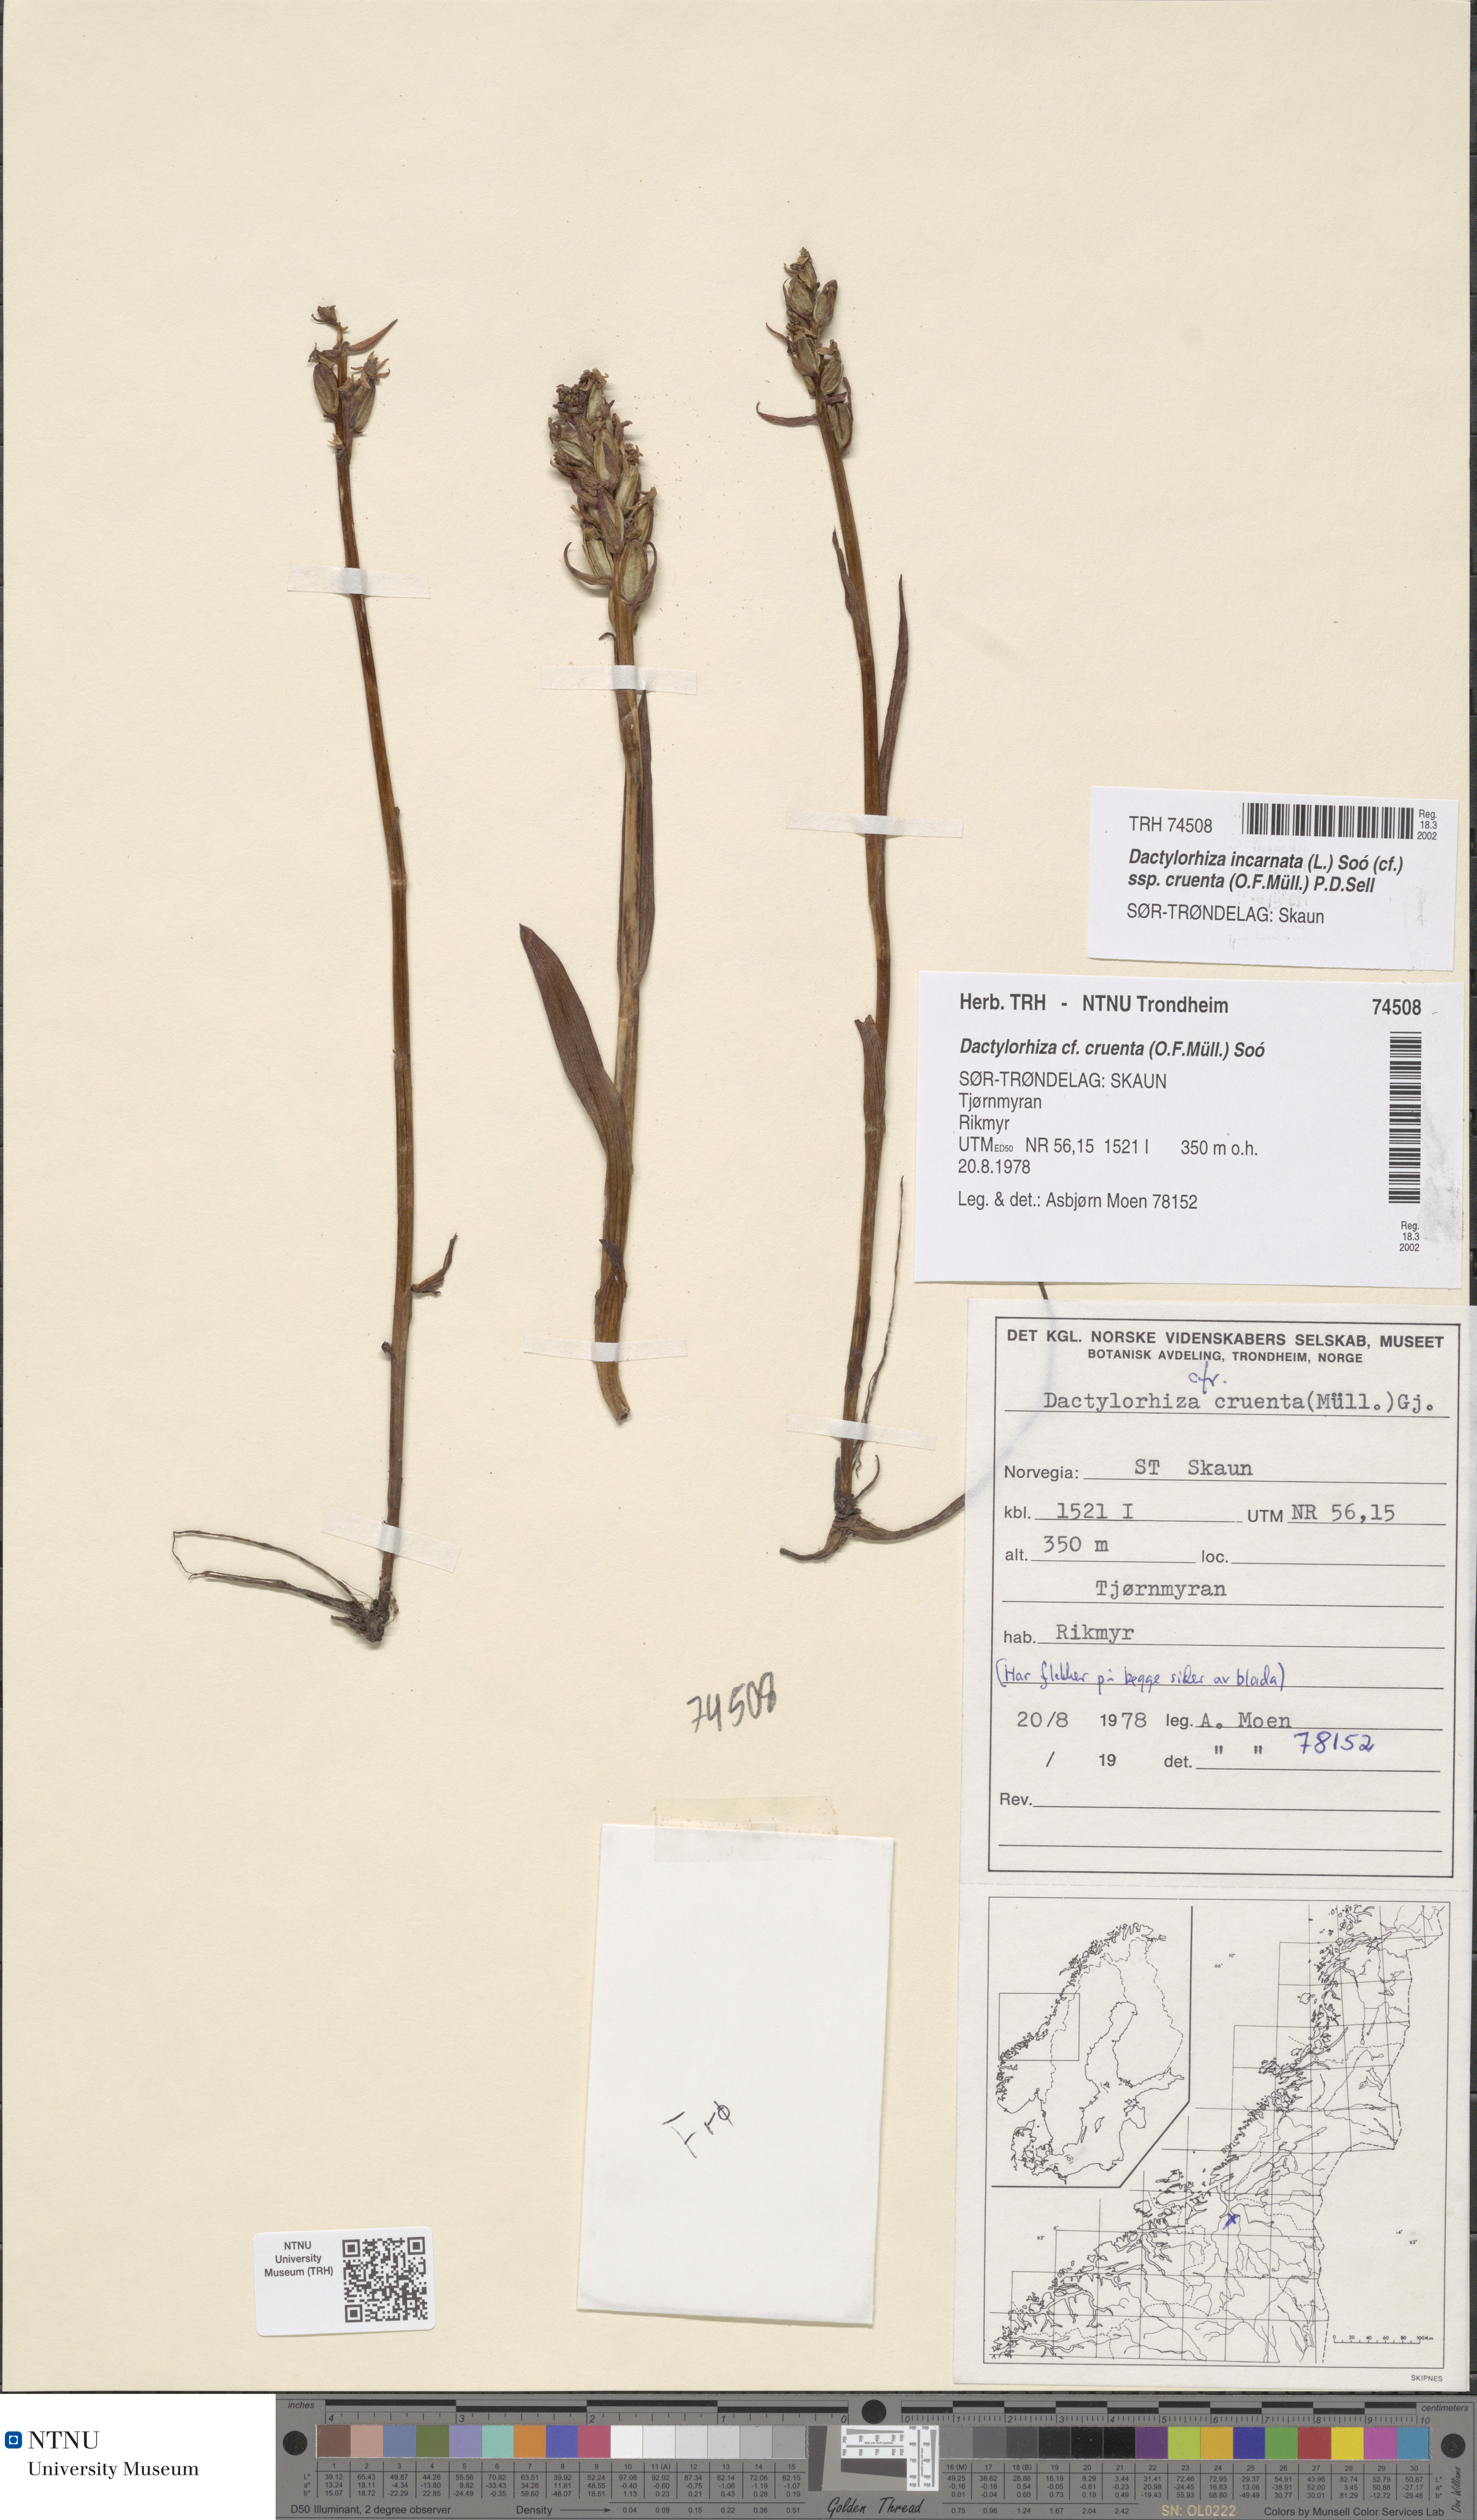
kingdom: Plantae
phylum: Tracheophyta
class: Liliopsida
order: Asparagales
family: Orchidaceae
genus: Dactylorhiza
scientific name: Dactylorhiza incarnata
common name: Early marsh-orchid
